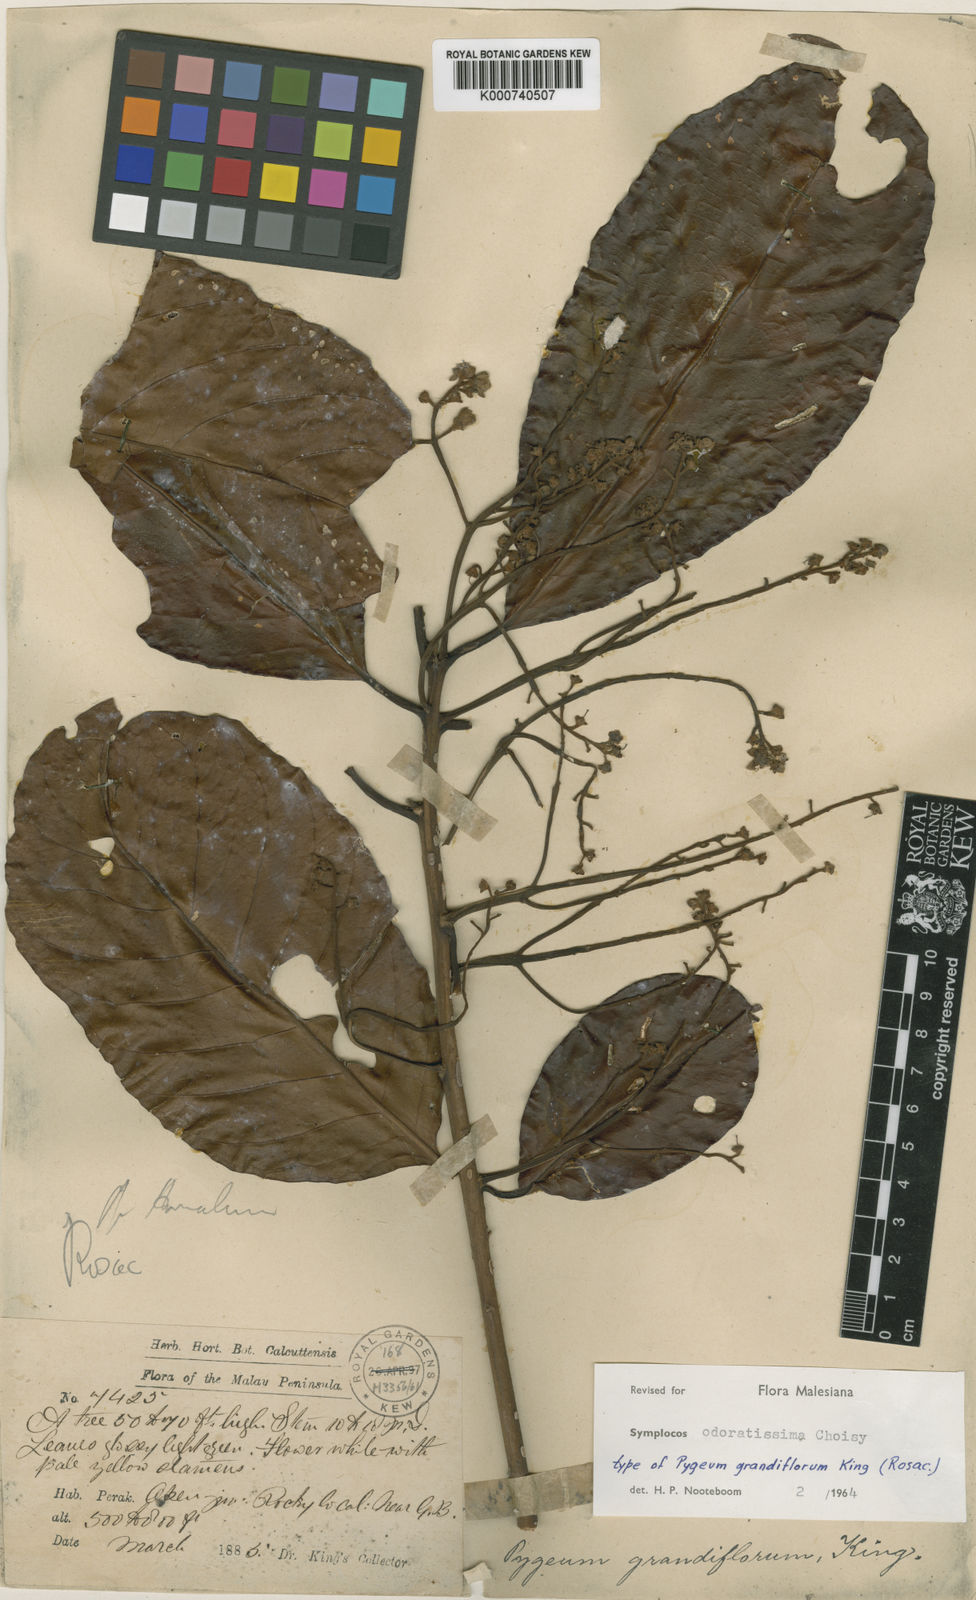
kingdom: Plantae
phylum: Tracheophyta
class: Magnoliopsida
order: Ericales
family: Symplocaceae
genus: Symplocos
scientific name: Symplocos odoratissima
